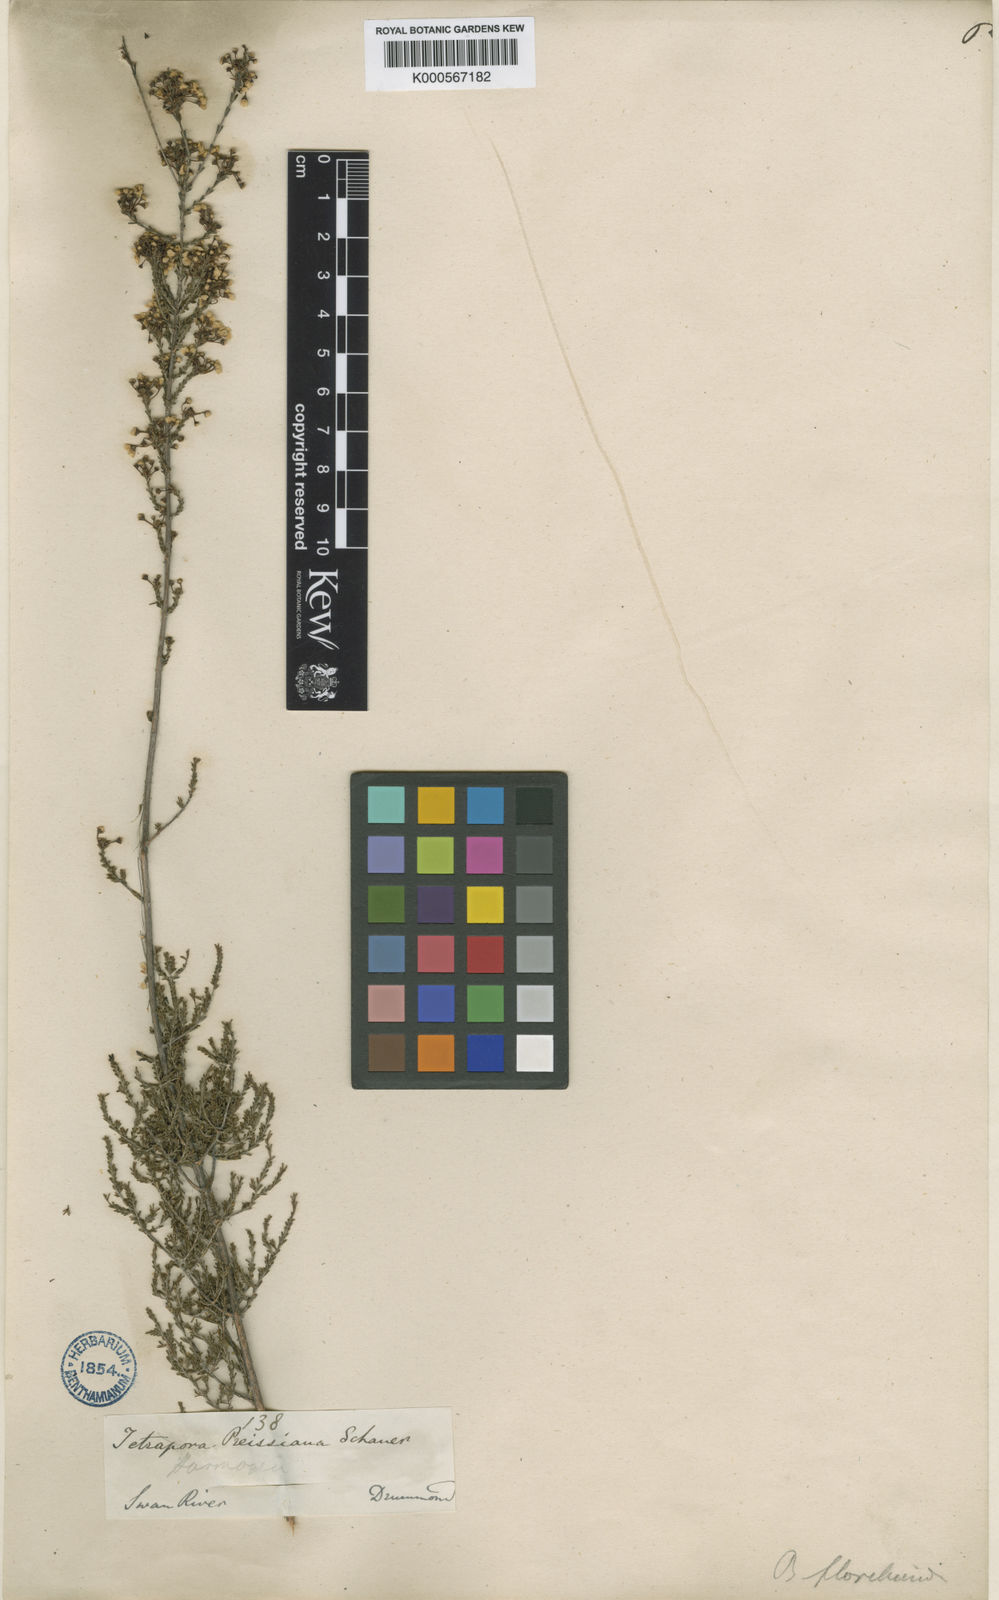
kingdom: Plantae
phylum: Tracheophyta
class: Magnoliopsida
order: Myrtales
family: Myrtaceae
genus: Baeckea
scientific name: Baeckea floribunda
